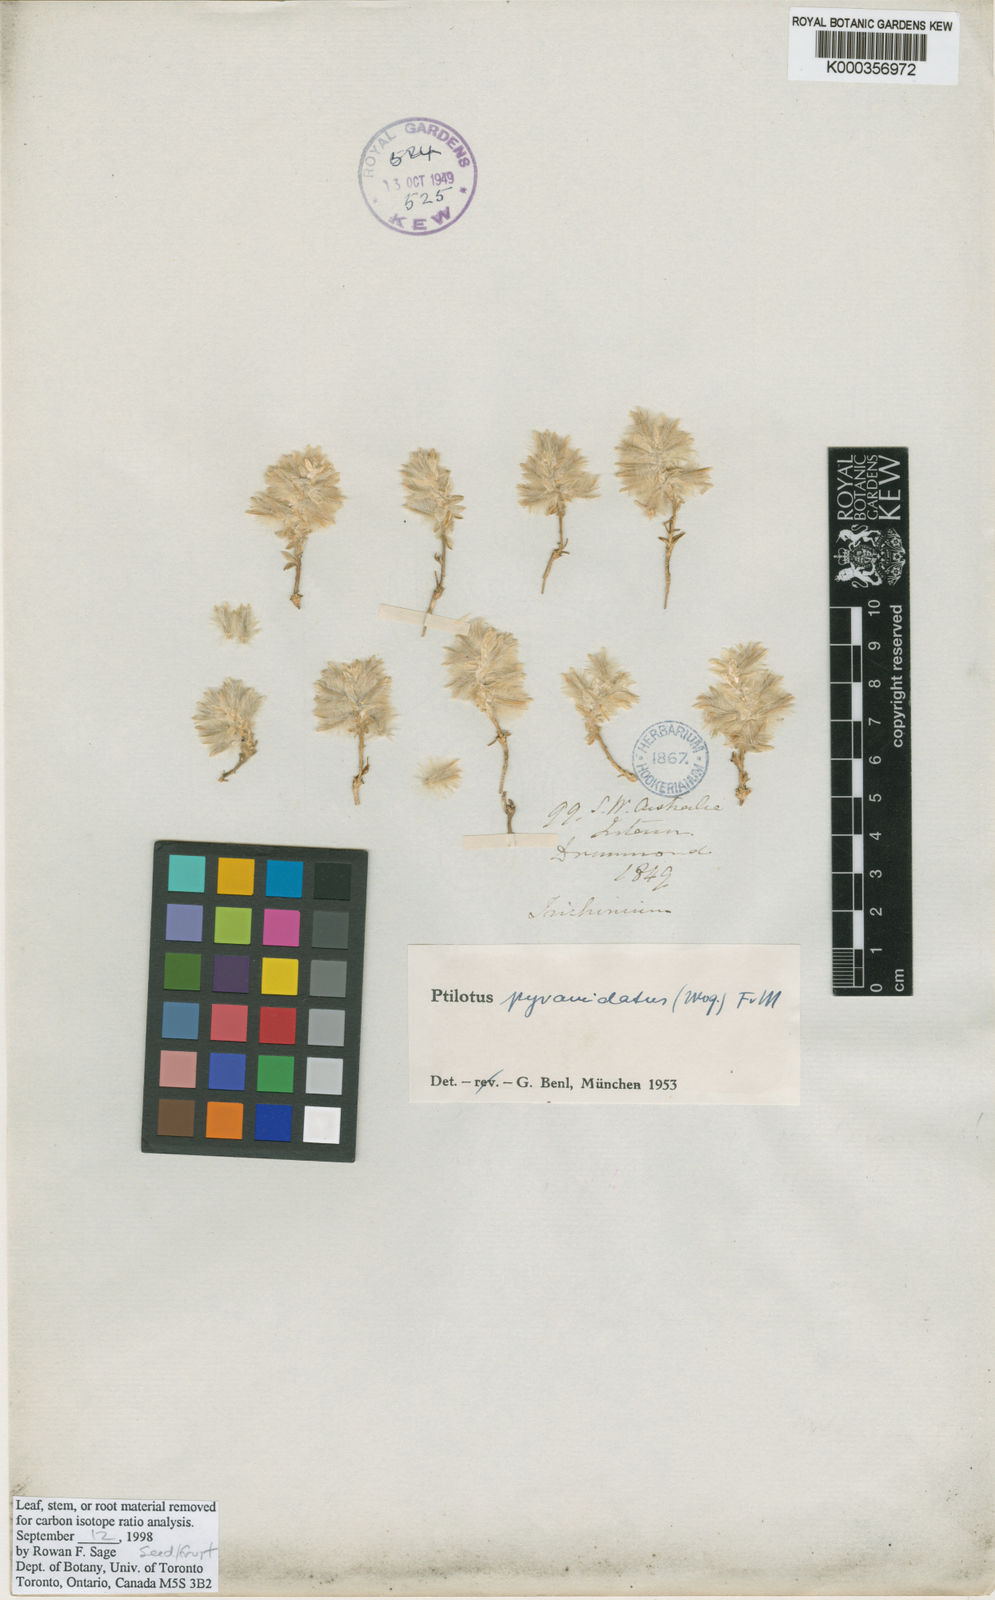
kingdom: Plantae
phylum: Tracheophyta
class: Magnoliopsida
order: Caryophyllales
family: Amaranthaceae
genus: Ptilotus
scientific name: Ptilotus pyramidatus
